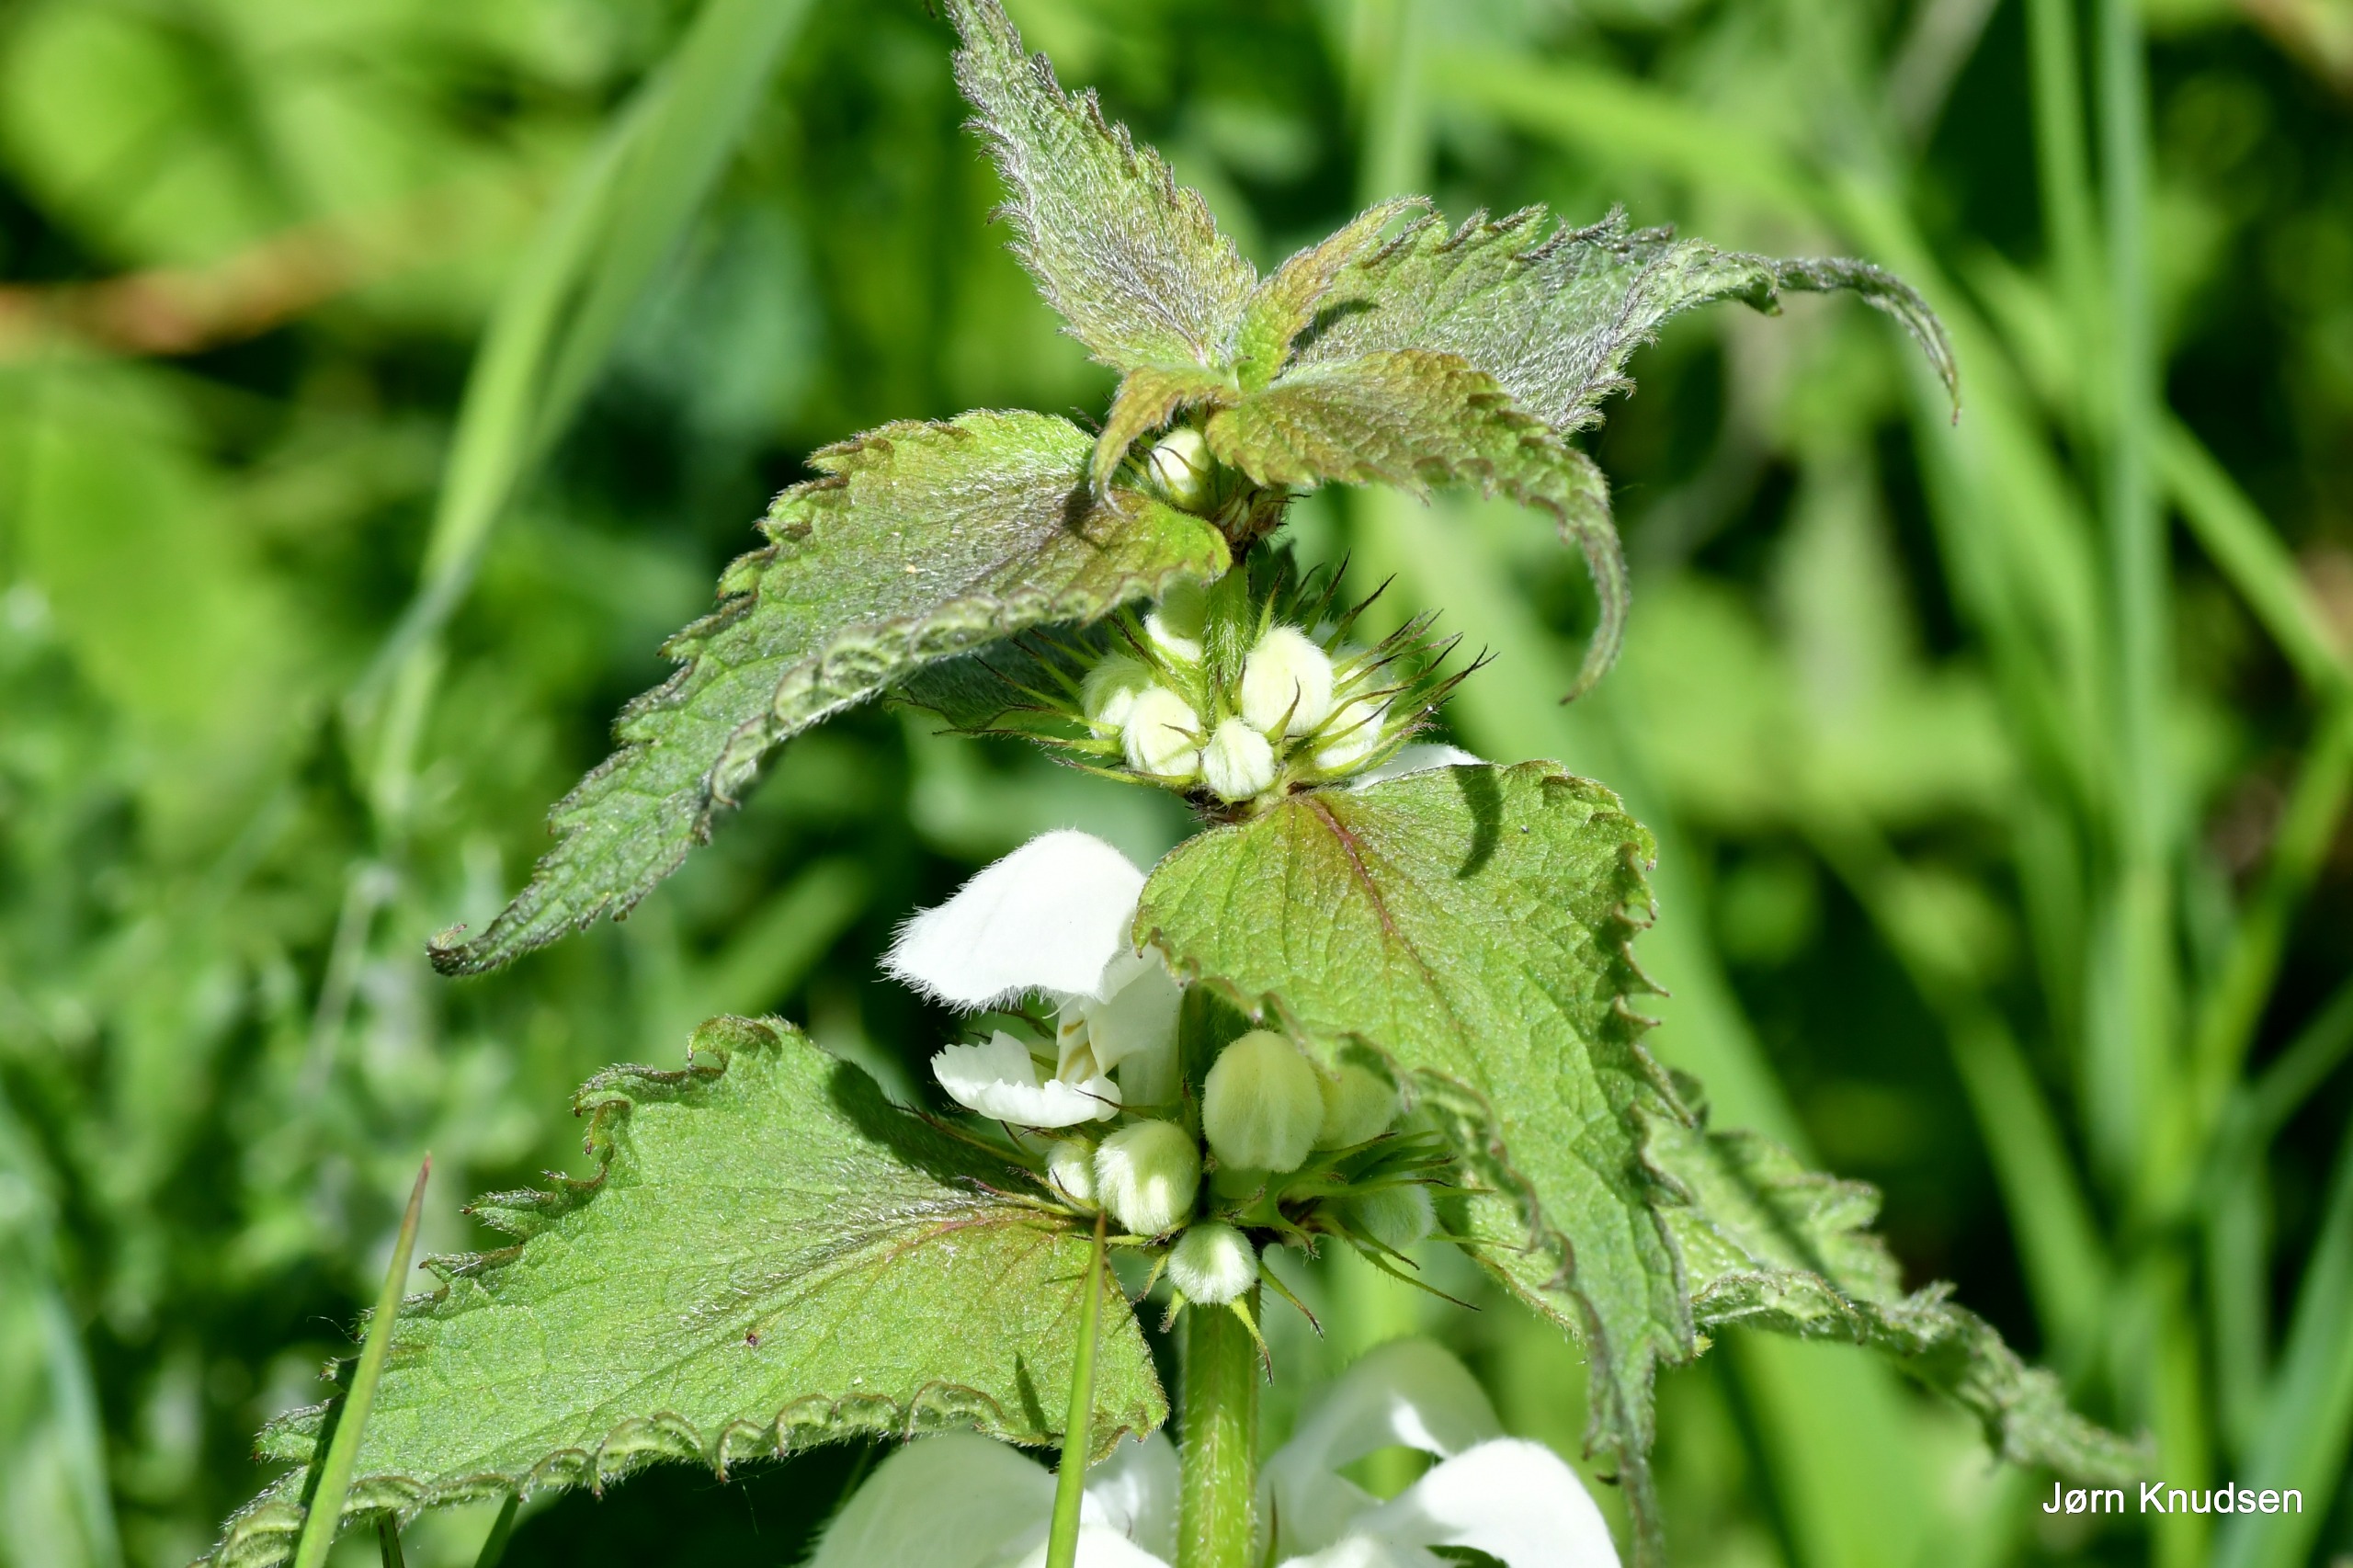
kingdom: Plantae
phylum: Tracheophyta
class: Magnoliopsida
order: Lamiales
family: Lamiaceae
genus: Lamium
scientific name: Lamium album
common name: Døvnælde
